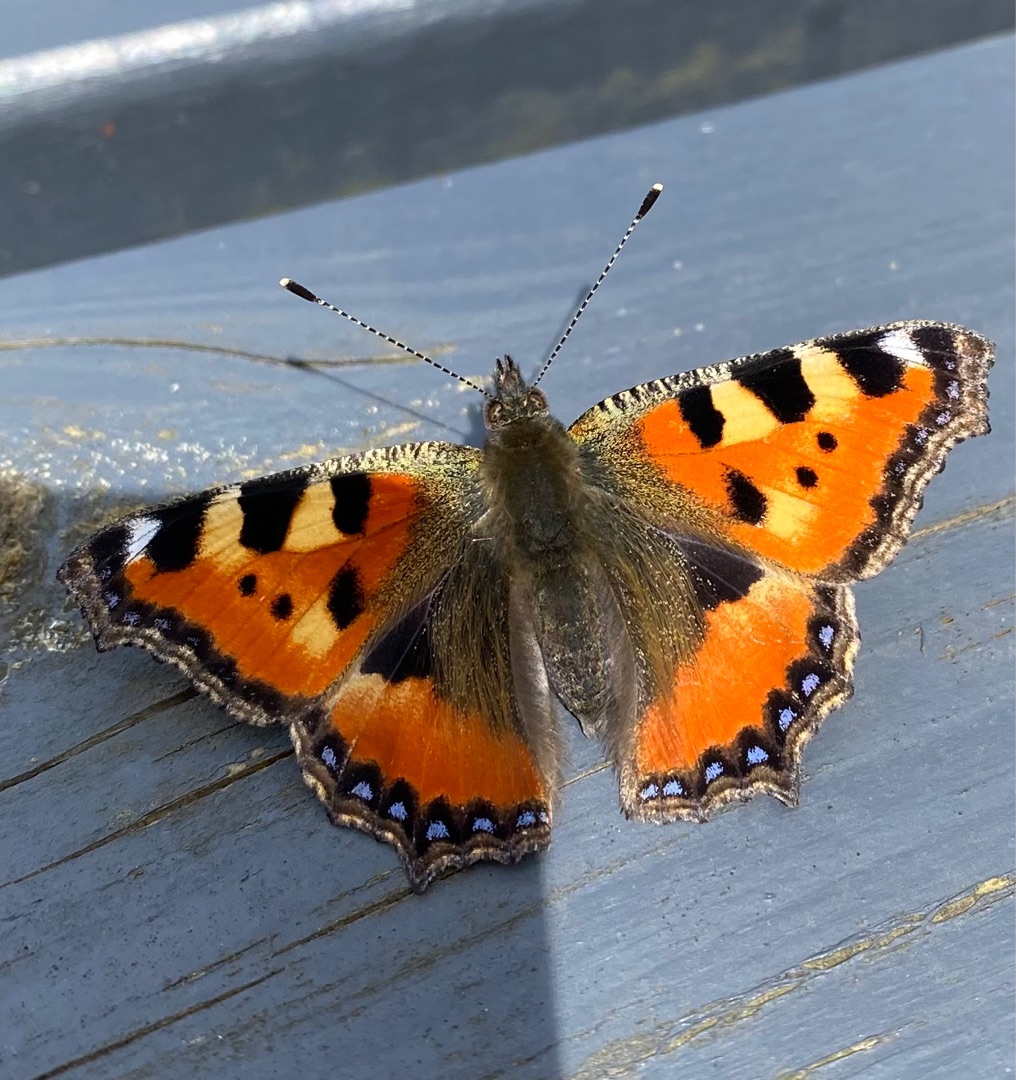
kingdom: Animalia
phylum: Arthropoda
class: Insecta
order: Lepidoptera
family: Nymphalidae
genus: Aglais
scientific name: Aglais urticae
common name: Nældens takvinge
